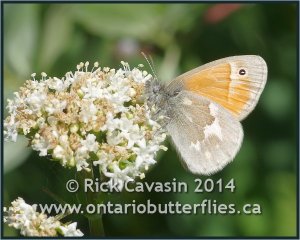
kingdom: Animalia
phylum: Arthropoda
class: Insecta
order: Lepidoptera
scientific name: Lepidoptera
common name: Butterflies
